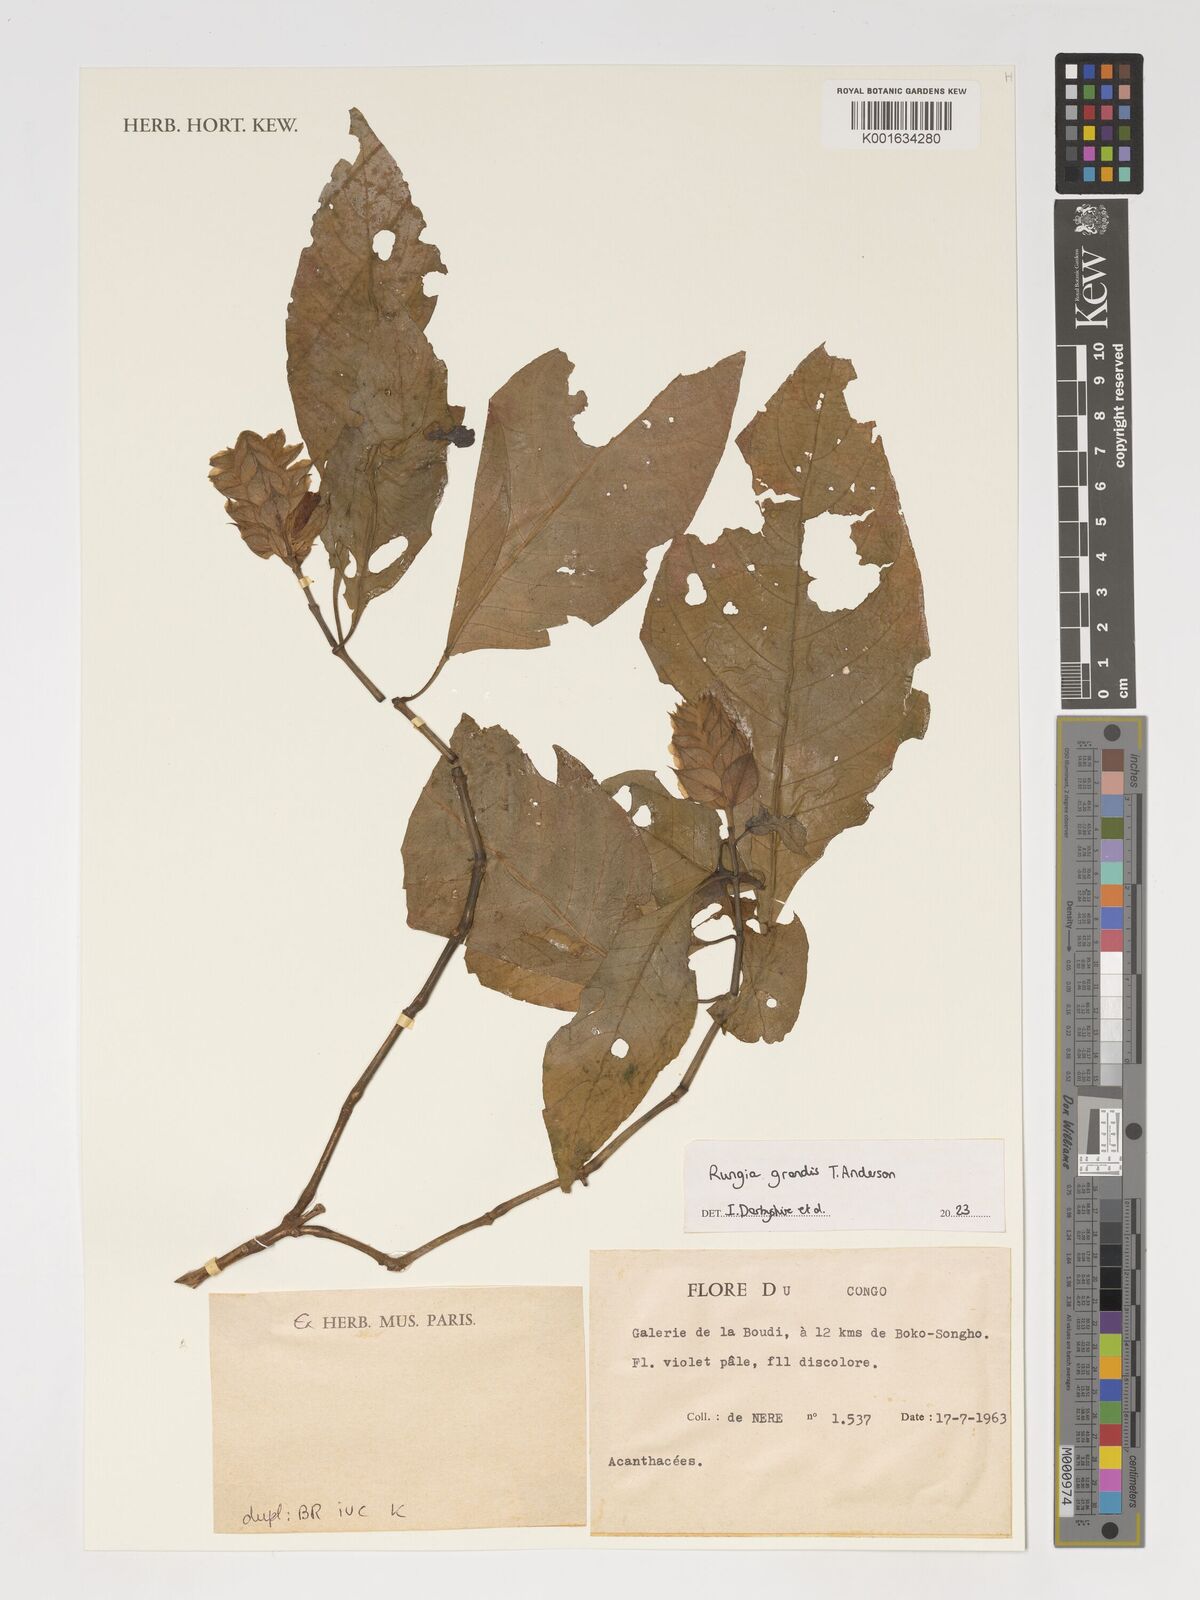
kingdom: Plantae
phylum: Tracheophyta
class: Magnoliopsida
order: Lamiales
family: Acanthaceae
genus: Justicia
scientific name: Justicia grandis
